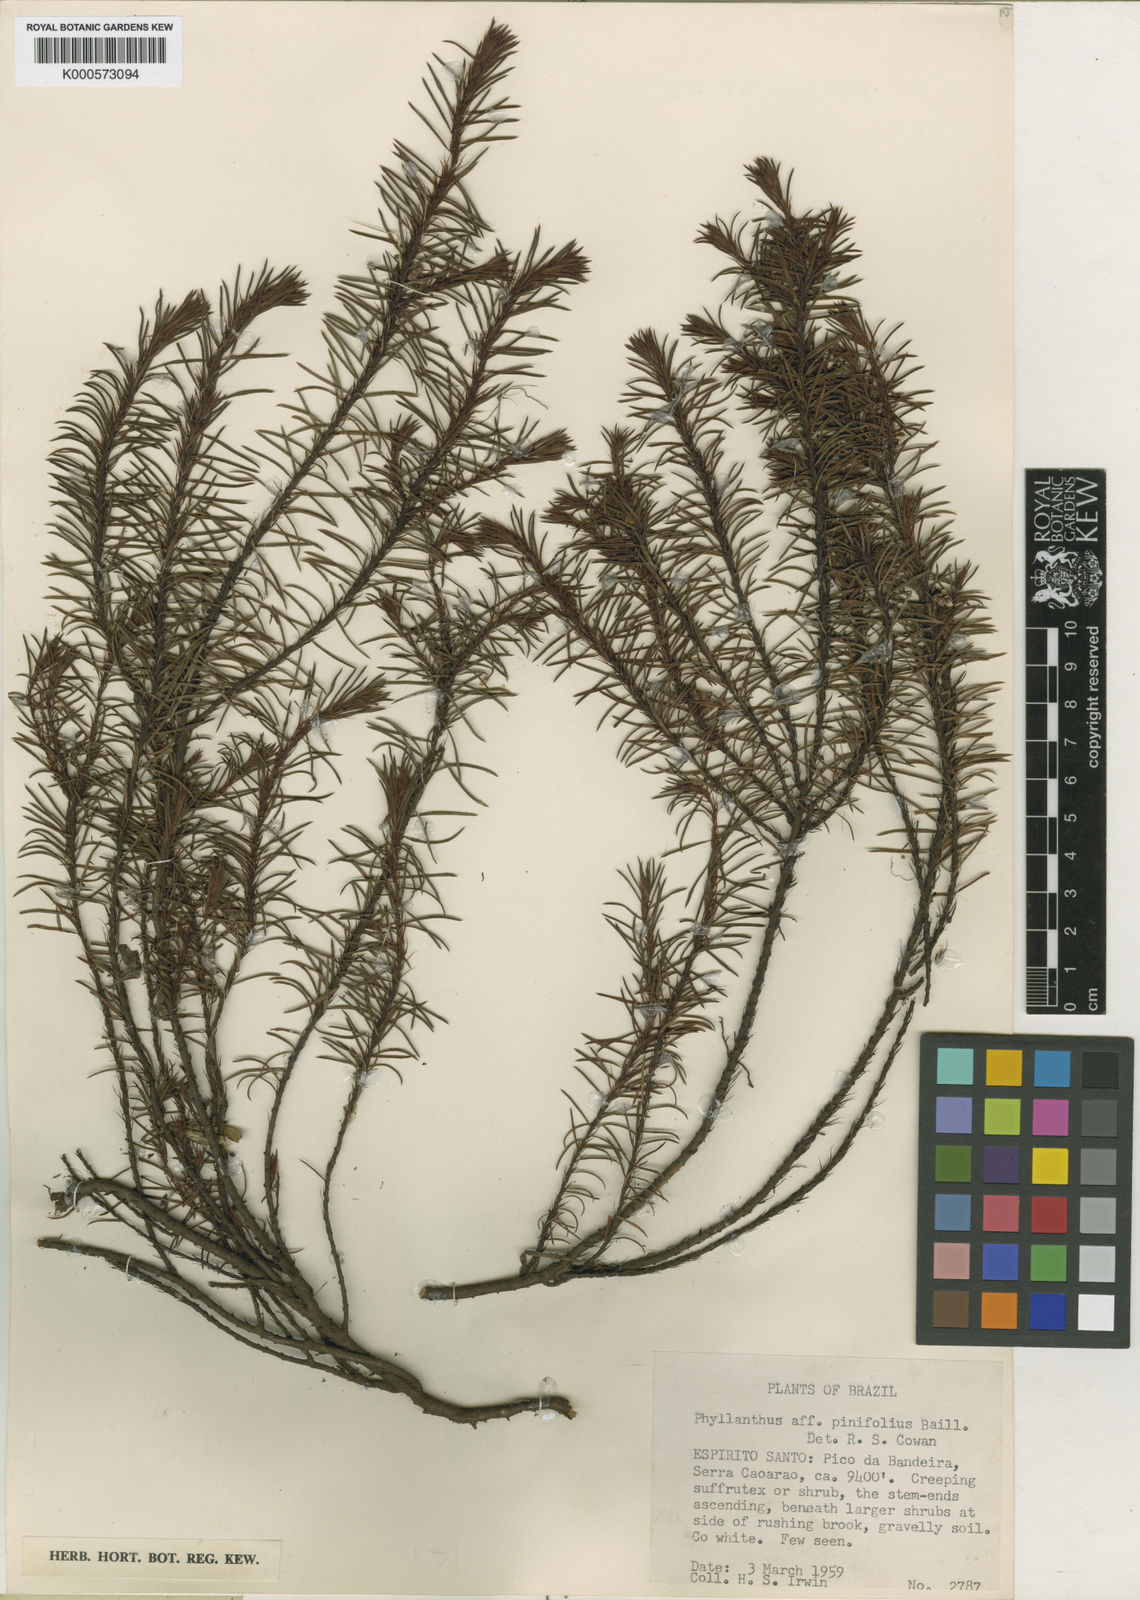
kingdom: Plantae
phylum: Tracheophyta
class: Magnoliopsida
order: Malpighiales
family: Phyllanthaceae
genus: Phyllanthus
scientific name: Phyllanthus pinifolius
